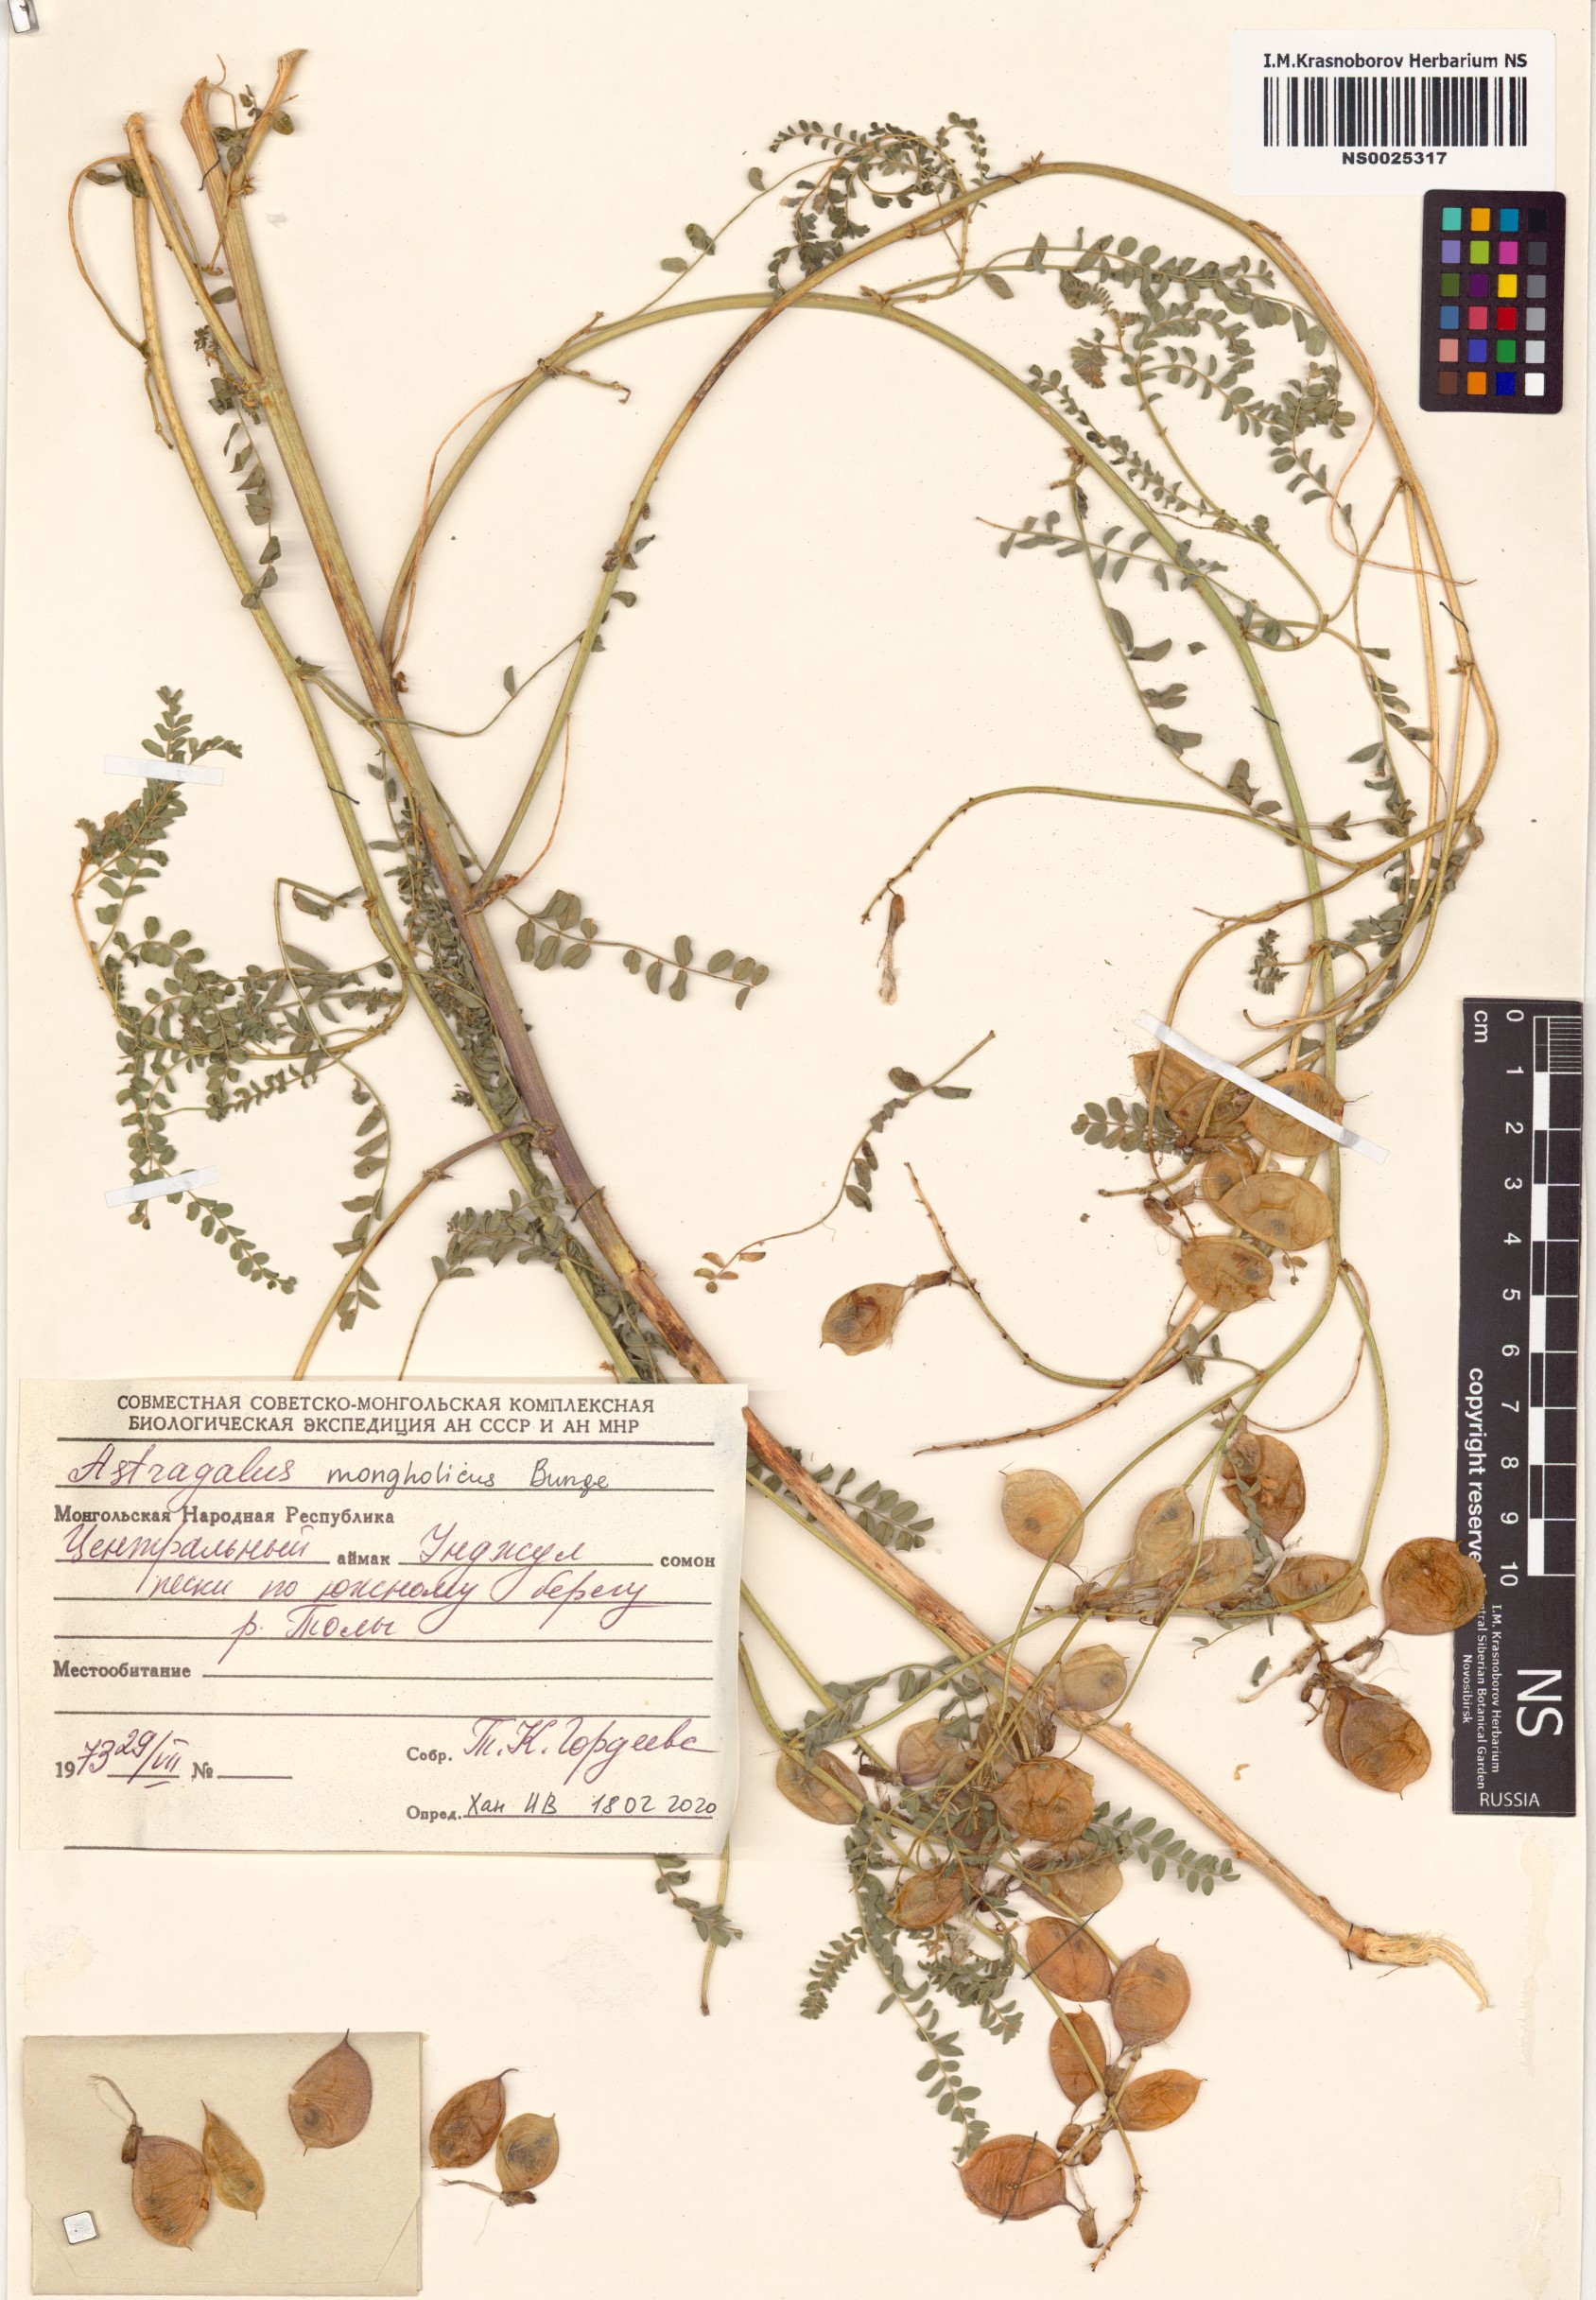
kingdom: Plantae
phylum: Tracheophyta
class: Magnoliopsida
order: Fabales
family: Fabaceae
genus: Astragalus
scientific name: Astragalus mongholicus
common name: Membranous milk-vetch
